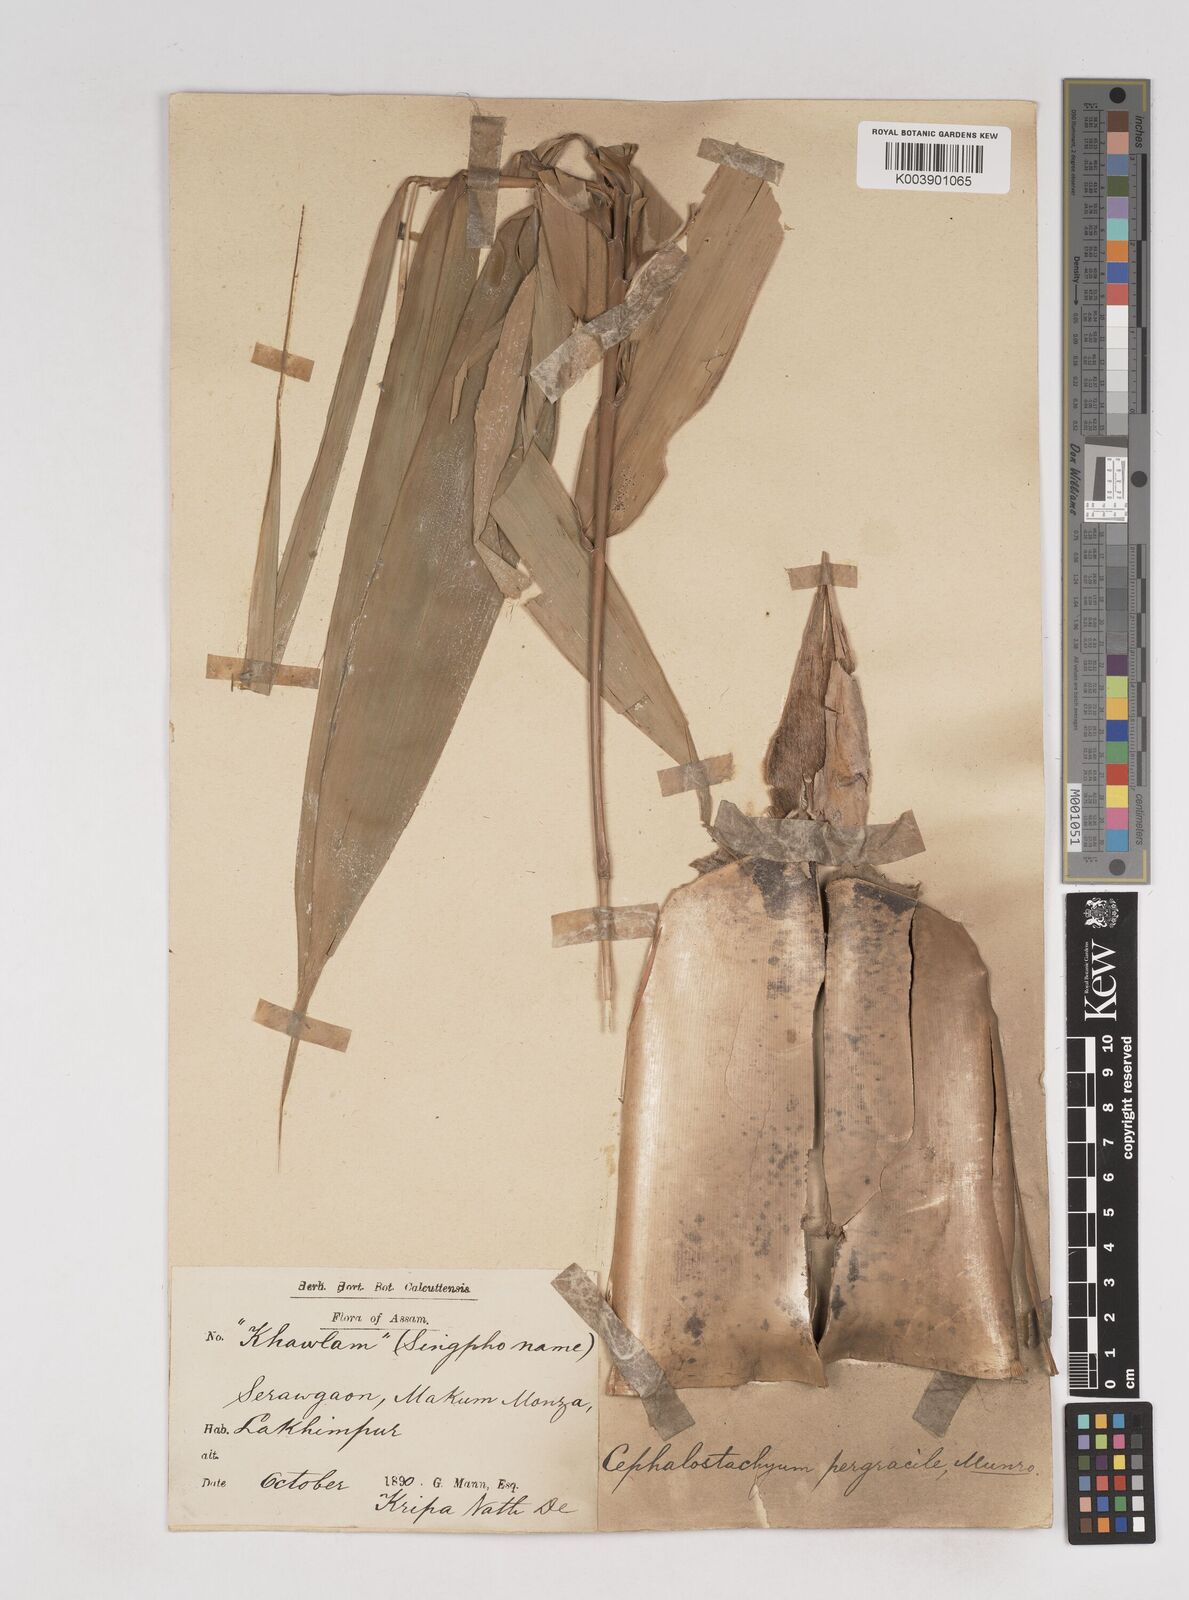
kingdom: Plantae
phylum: Tracheophyta
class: Liliopsida
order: Poales
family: Poaceae
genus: Schizostachyum
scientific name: Schizostachyum pergracile
